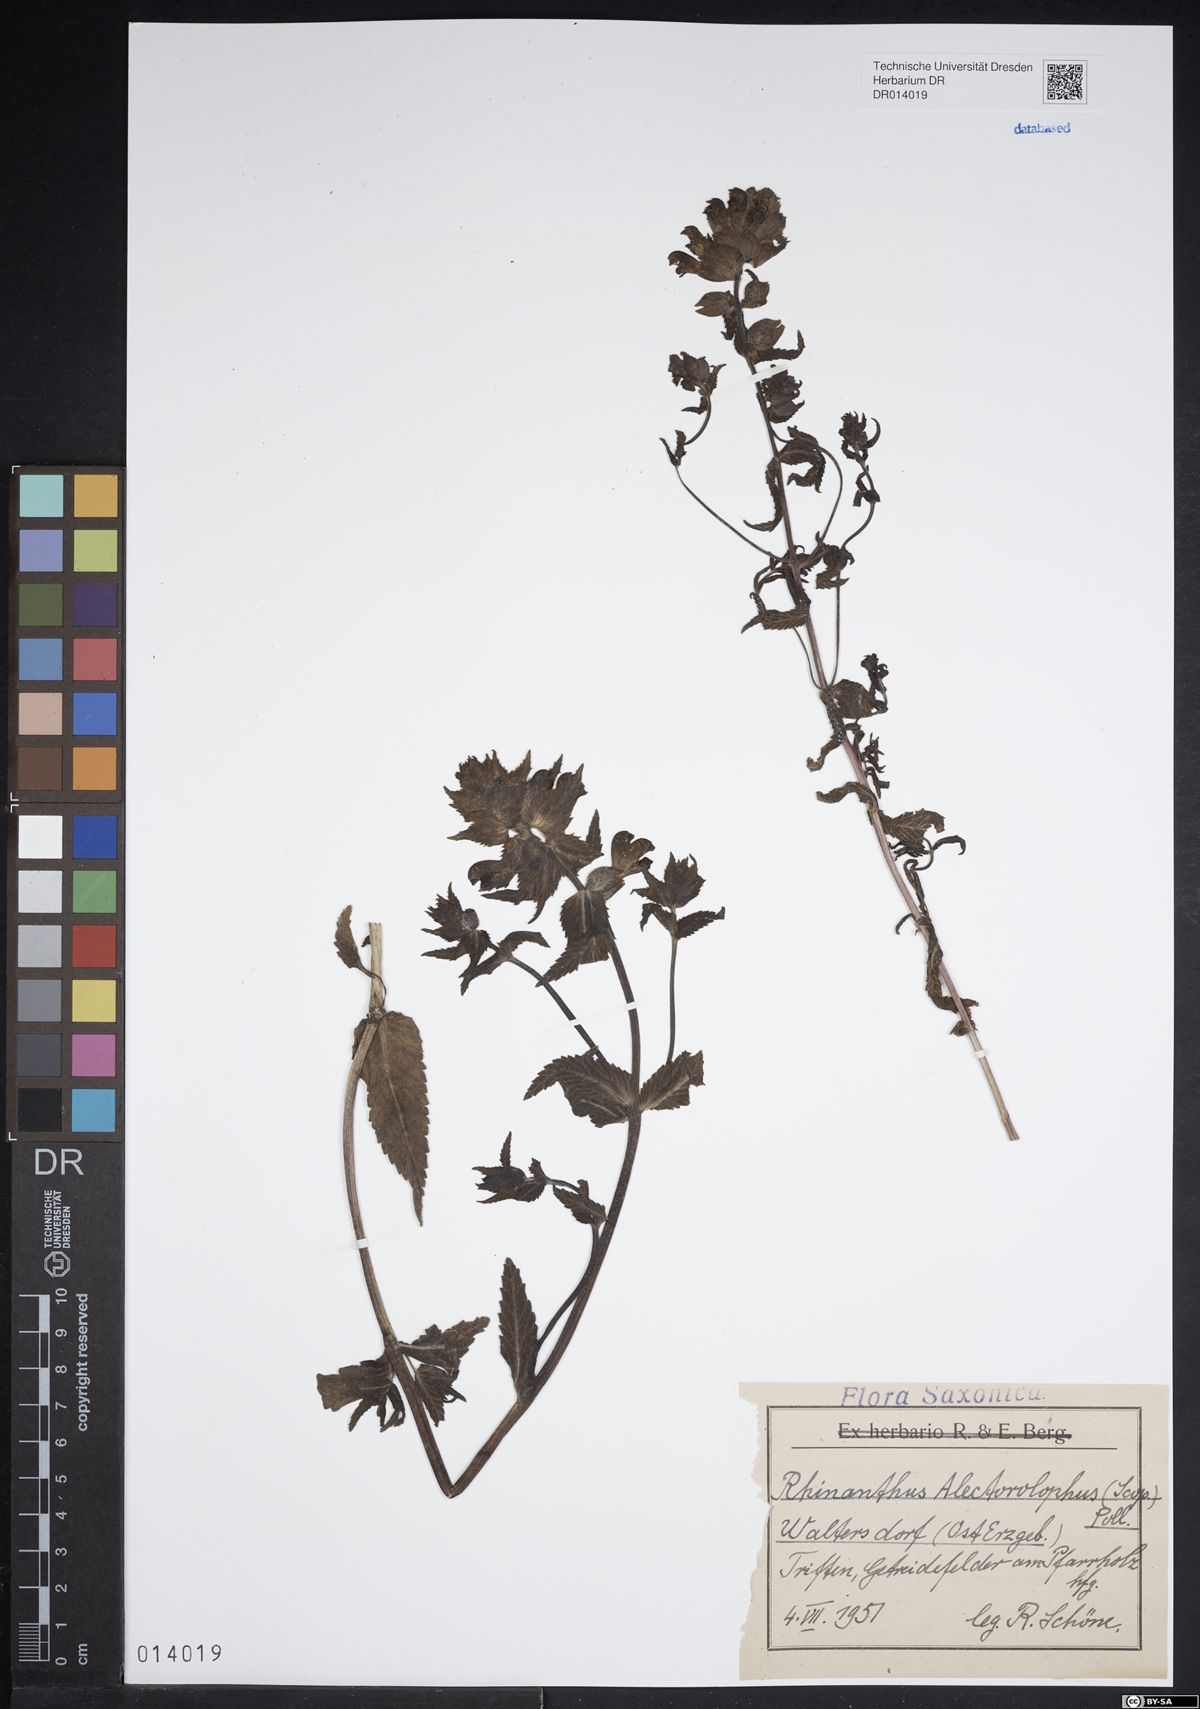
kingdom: Plantae
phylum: Tracheophyta
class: Magnoliopsida
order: Lamiales
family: Orobanchaceae
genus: Rhinanthus
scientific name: Rhinanthus alectorolophus
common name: Greater yellow-rattle
